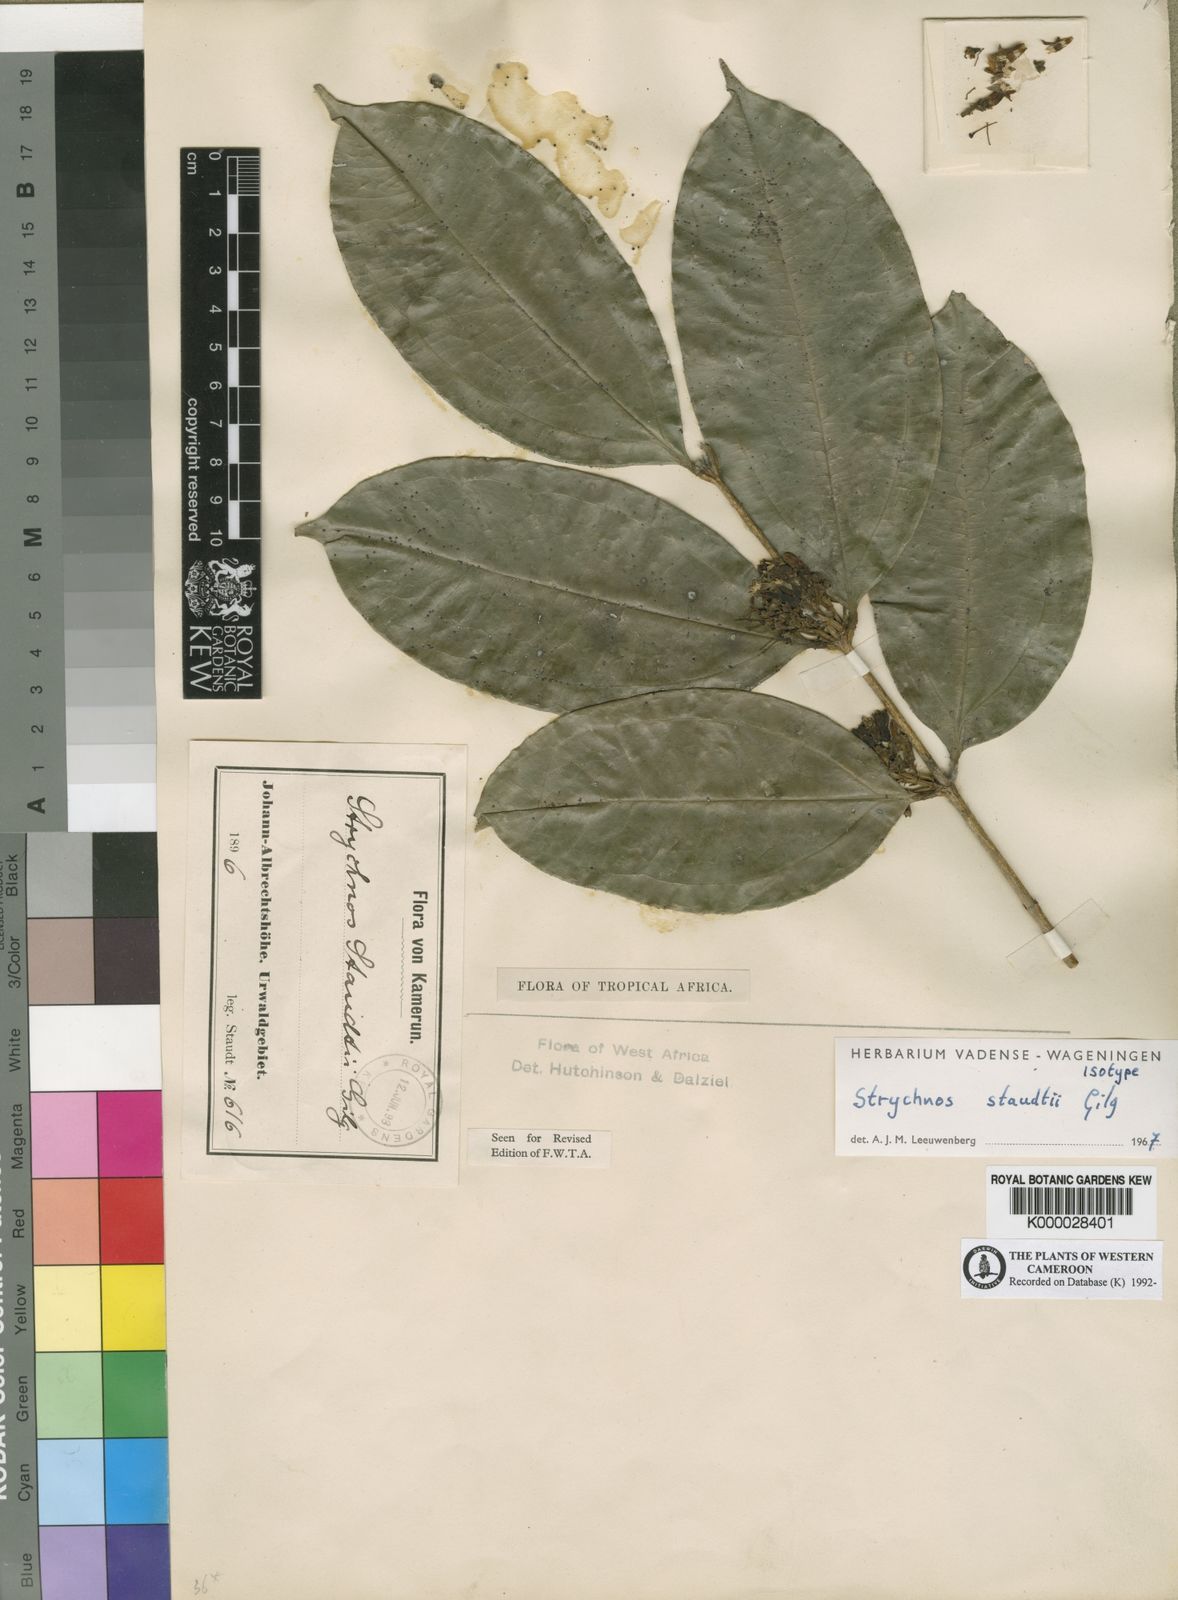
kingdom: Plantae
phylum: Tracheophyta
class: Magnoliopsida
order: Gentianales
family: Loganiaceae
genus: Strychnos
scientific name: Strychnos staudtii
